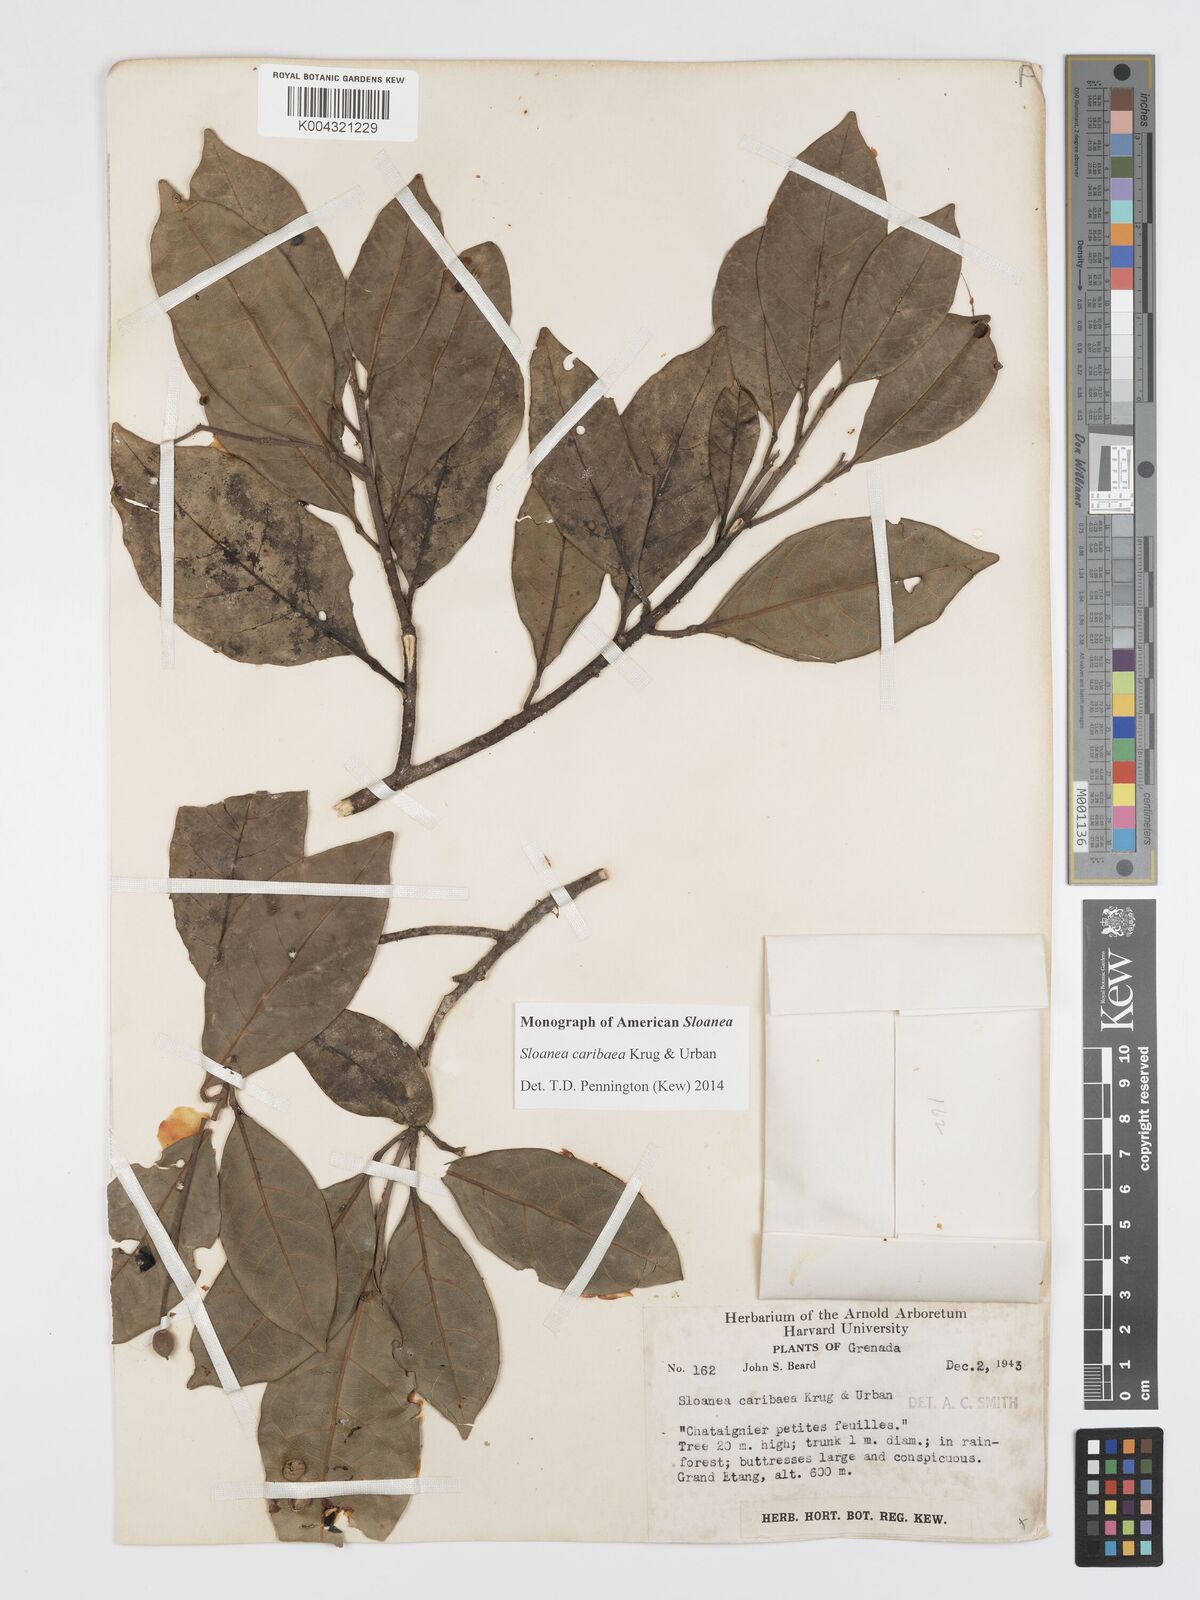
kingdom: Plantae
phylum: Tracheophyta
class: Magnoliopsida
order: Oxalidales
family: Elaeocarpaceae
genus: Sloanea
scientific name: Sloanea caribaea
